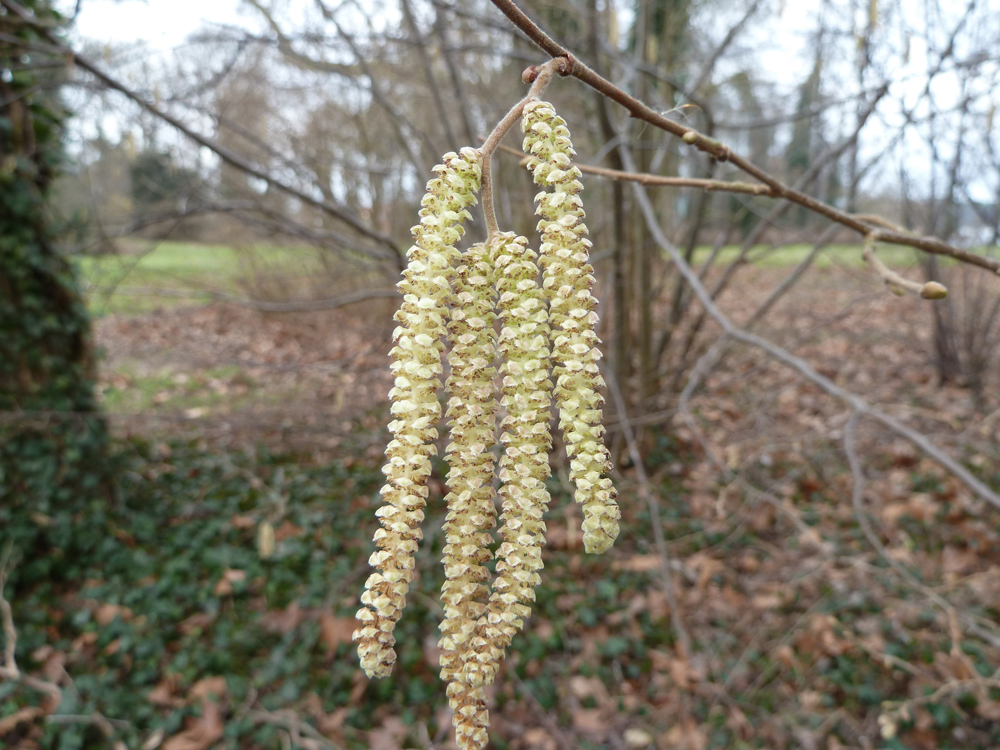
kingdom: Plantae
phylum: Tracheophyta
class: Magnoliopsida
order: Fagales
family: Betulaceae
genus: Corylus
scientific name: Corylus avellana
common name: European hazel
